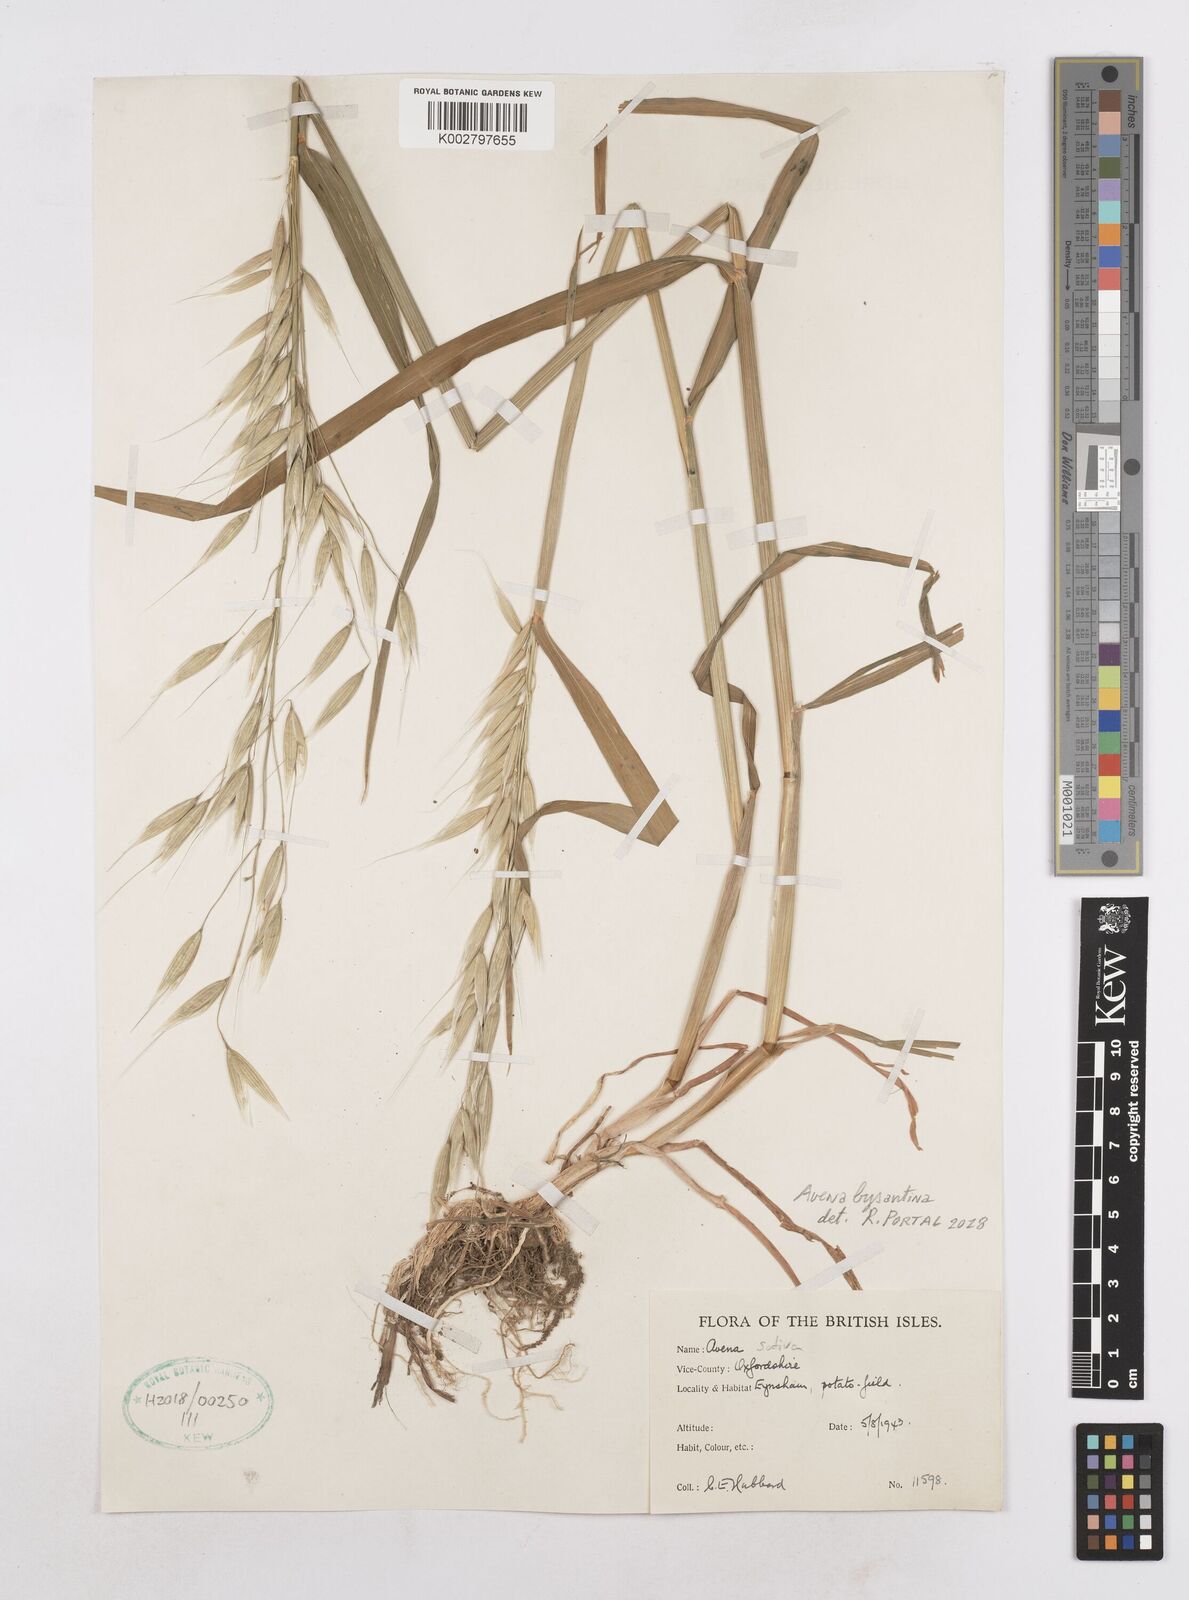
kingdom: Plantae
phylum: Tracheophyta
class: Liliopsida
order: Poales
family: Poaceae
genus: Avena
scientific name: Avena byzantina
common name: Algerian oat
